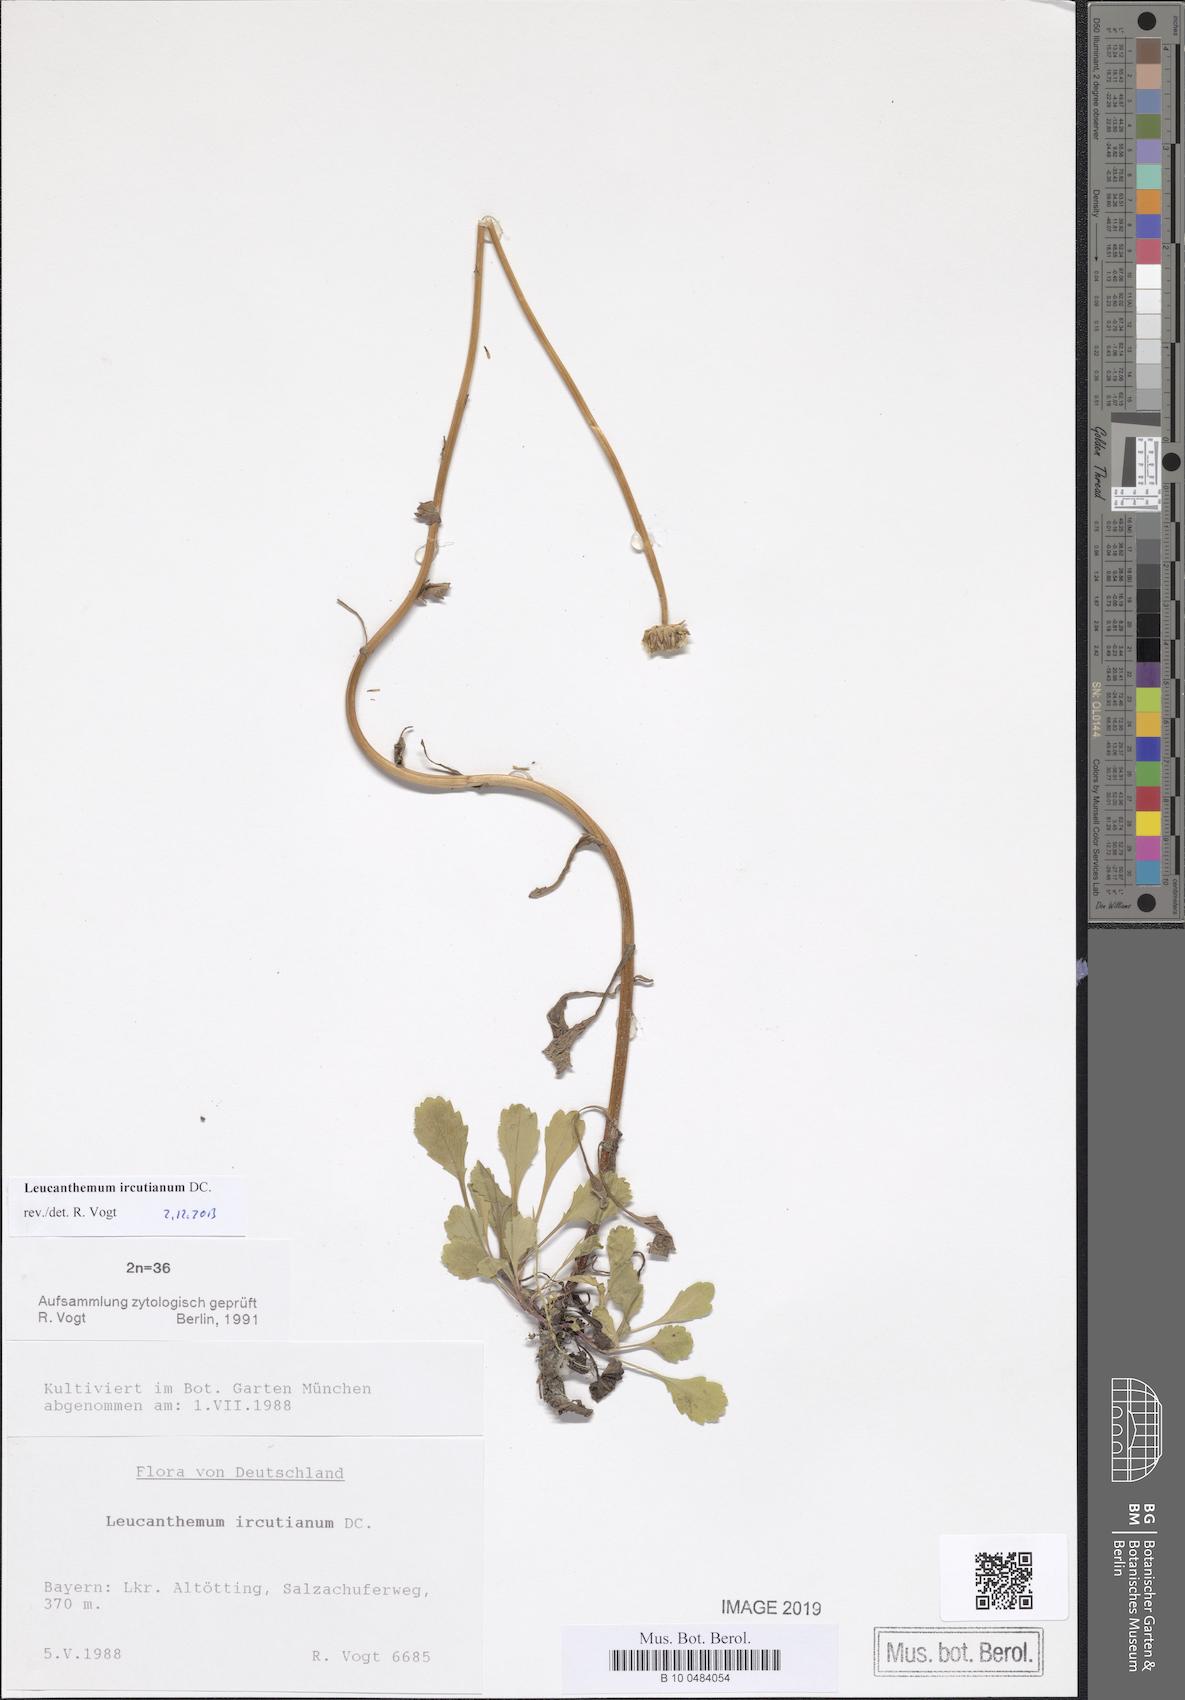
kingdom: Plantae
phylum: Tracheophyta
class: Magnoliopsida
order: Asterales
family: Asteraceae
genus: Leucanthemum
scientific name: Leucanthemum ircutianum
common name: Daisy
